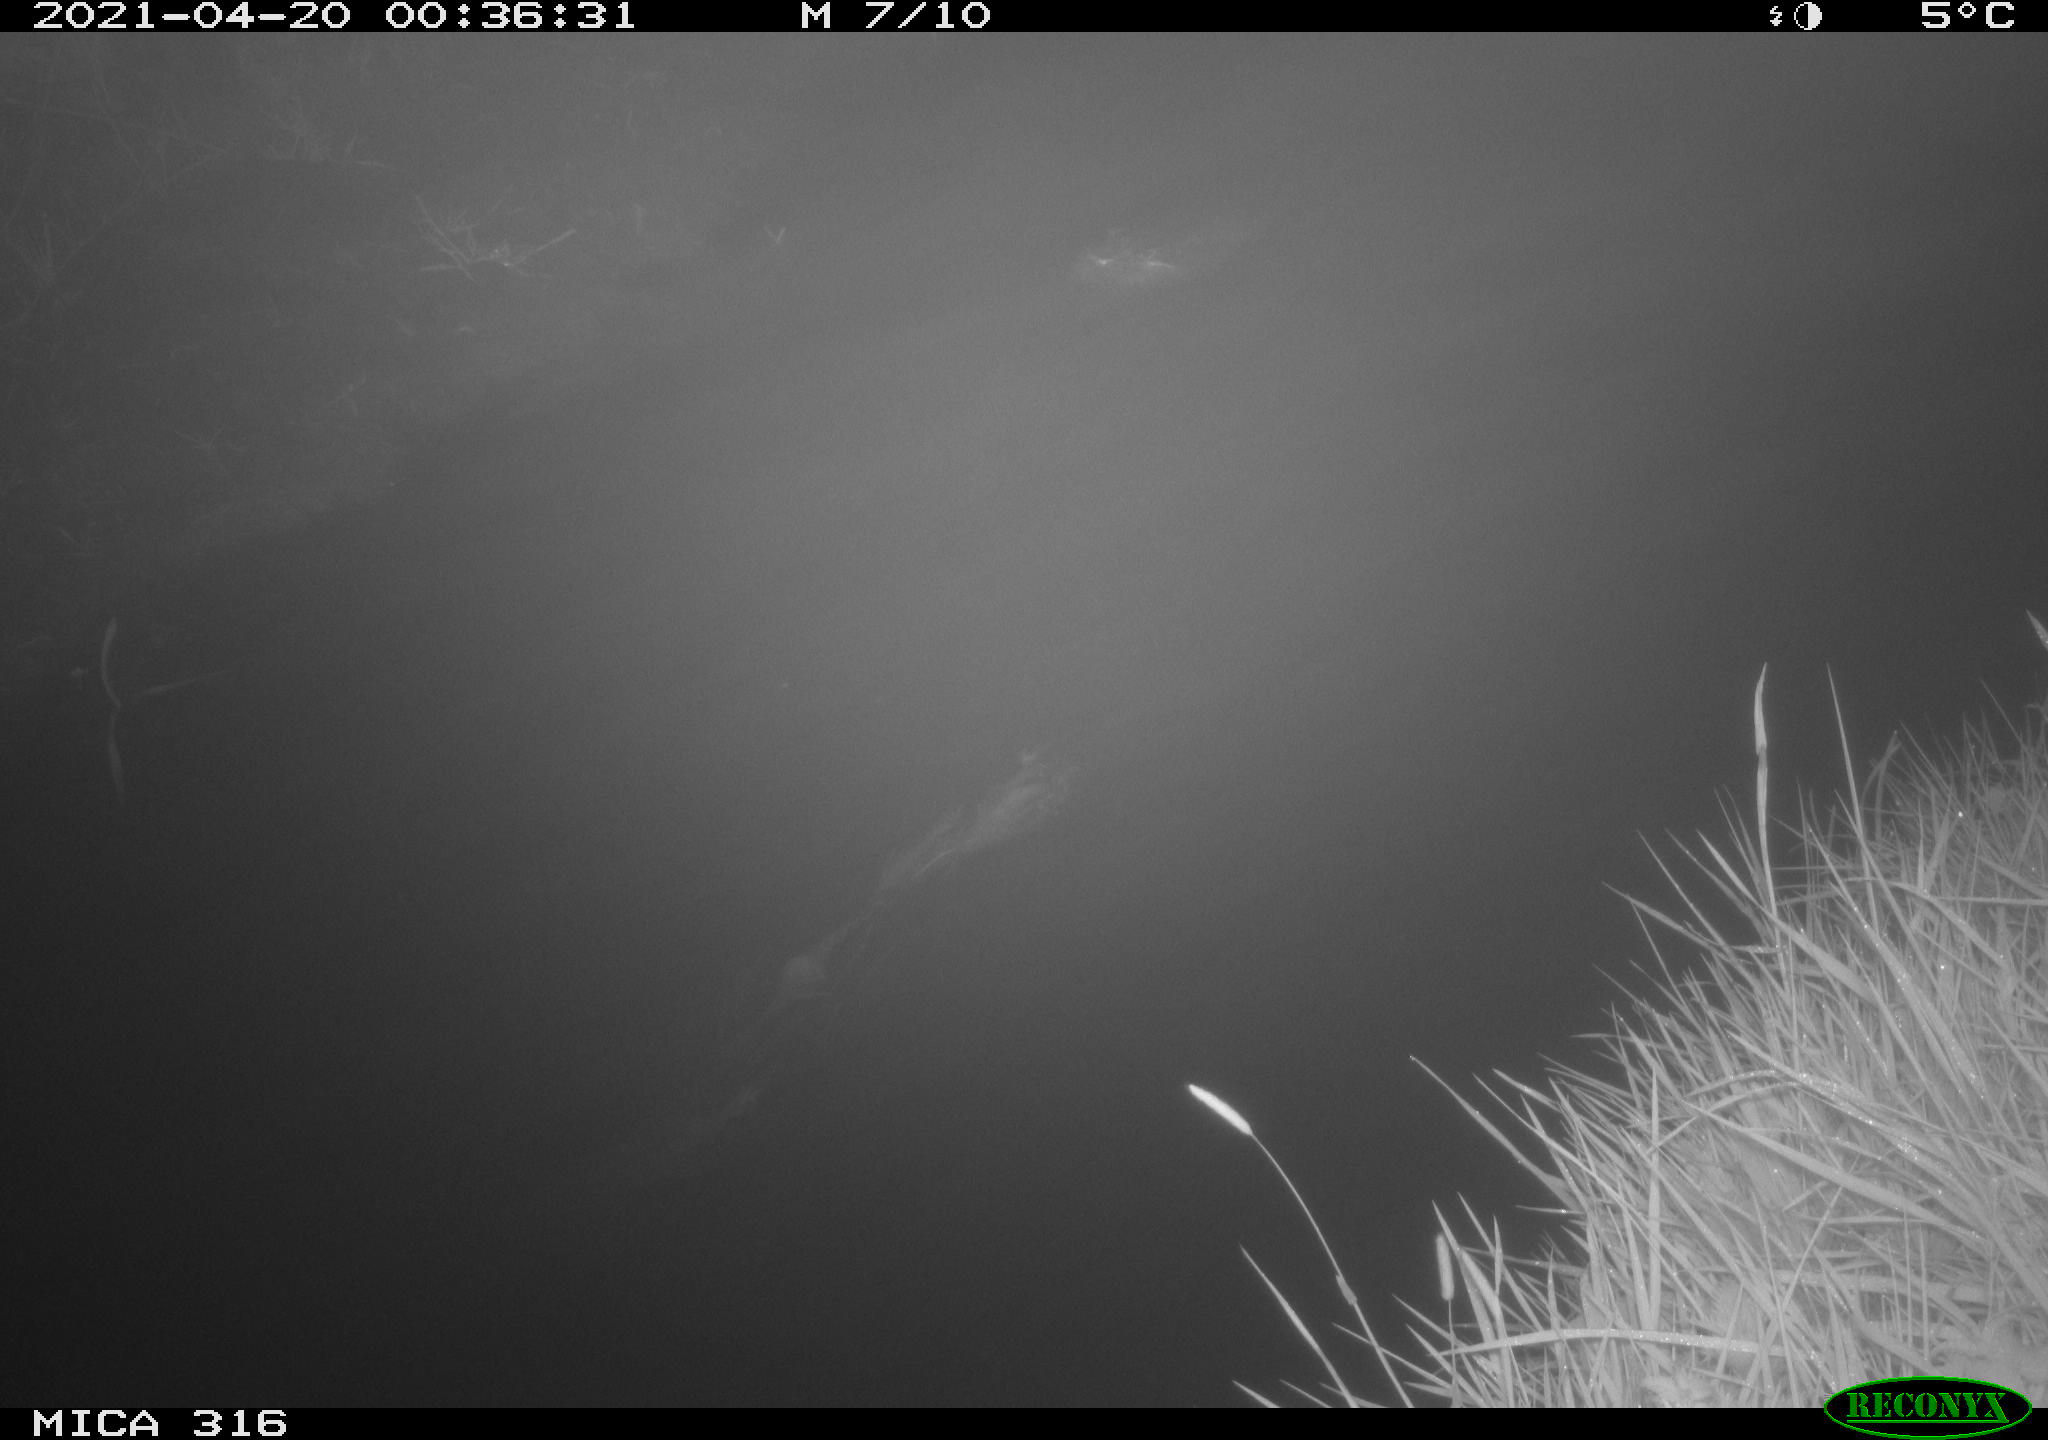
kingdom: Animalia
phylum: Chordata
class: Aves
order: Anseriformes
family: Anatidae
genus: Anas
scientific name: Anas platyrhynchos
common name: Mallard
